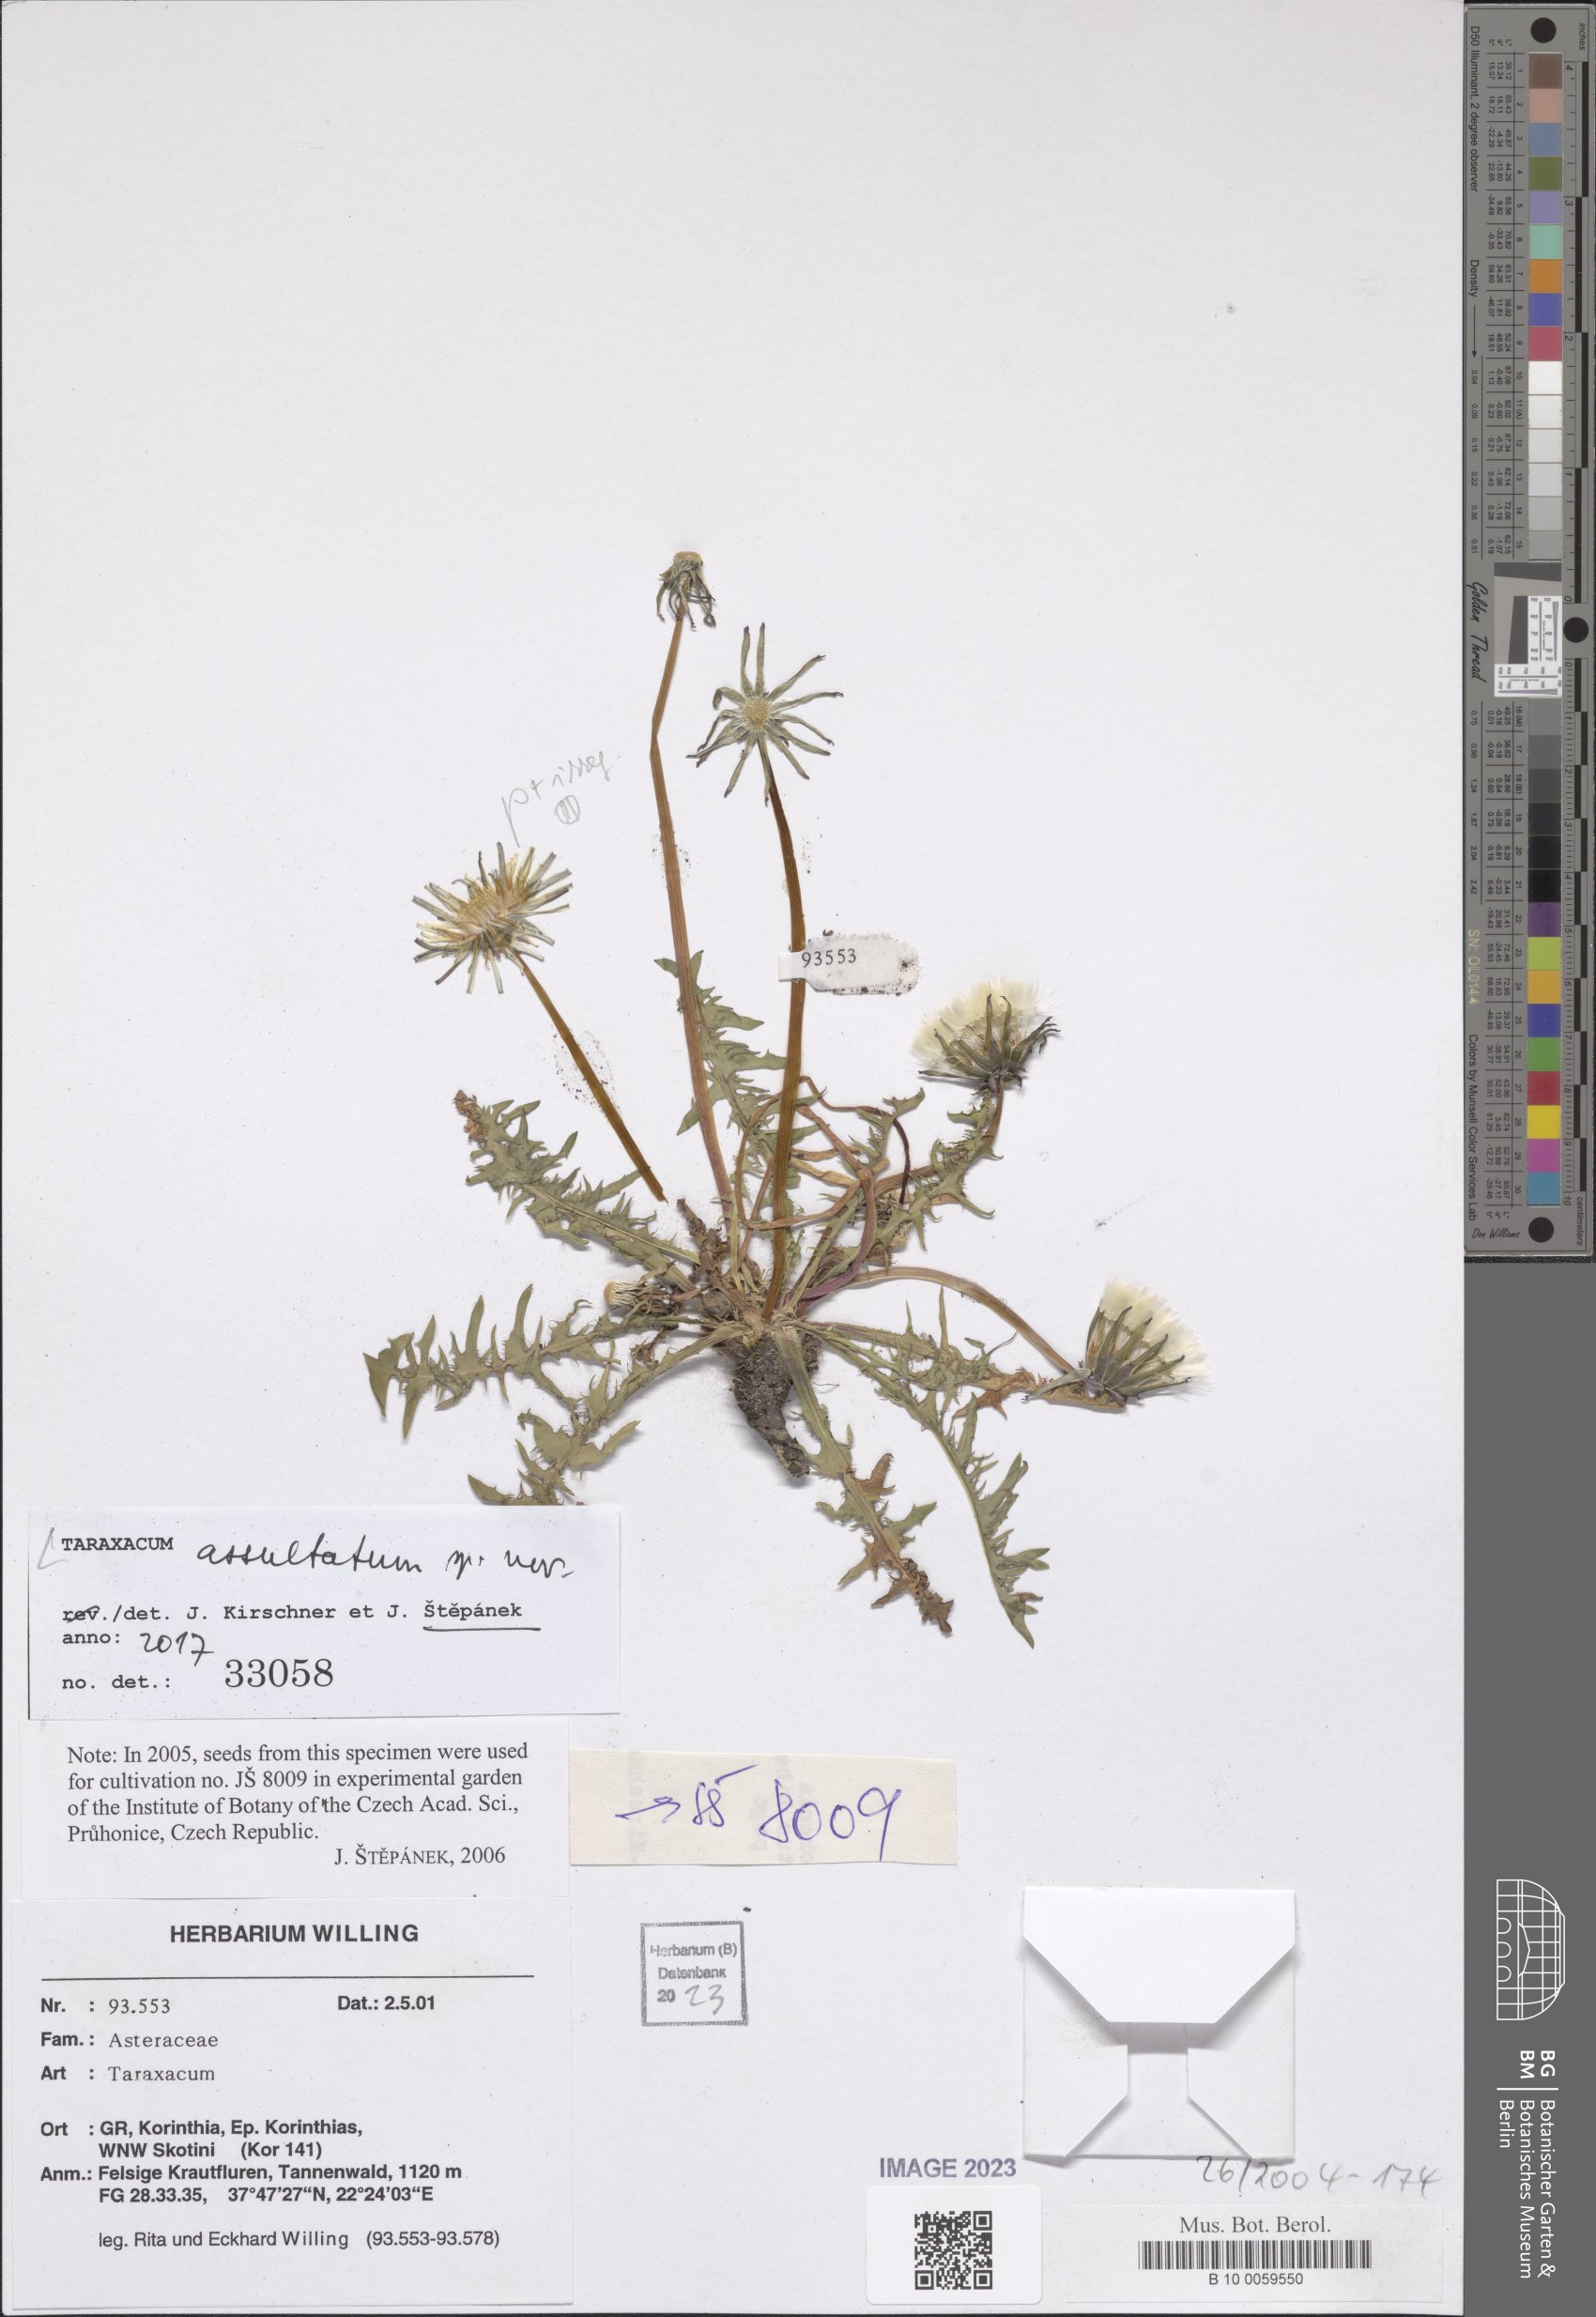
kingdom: Plantae
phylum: Tracheophyta
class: Magnoliopsida
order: Asterales
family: Asteraceae
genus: Taraxacum
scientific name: Taraxacum puolannei
